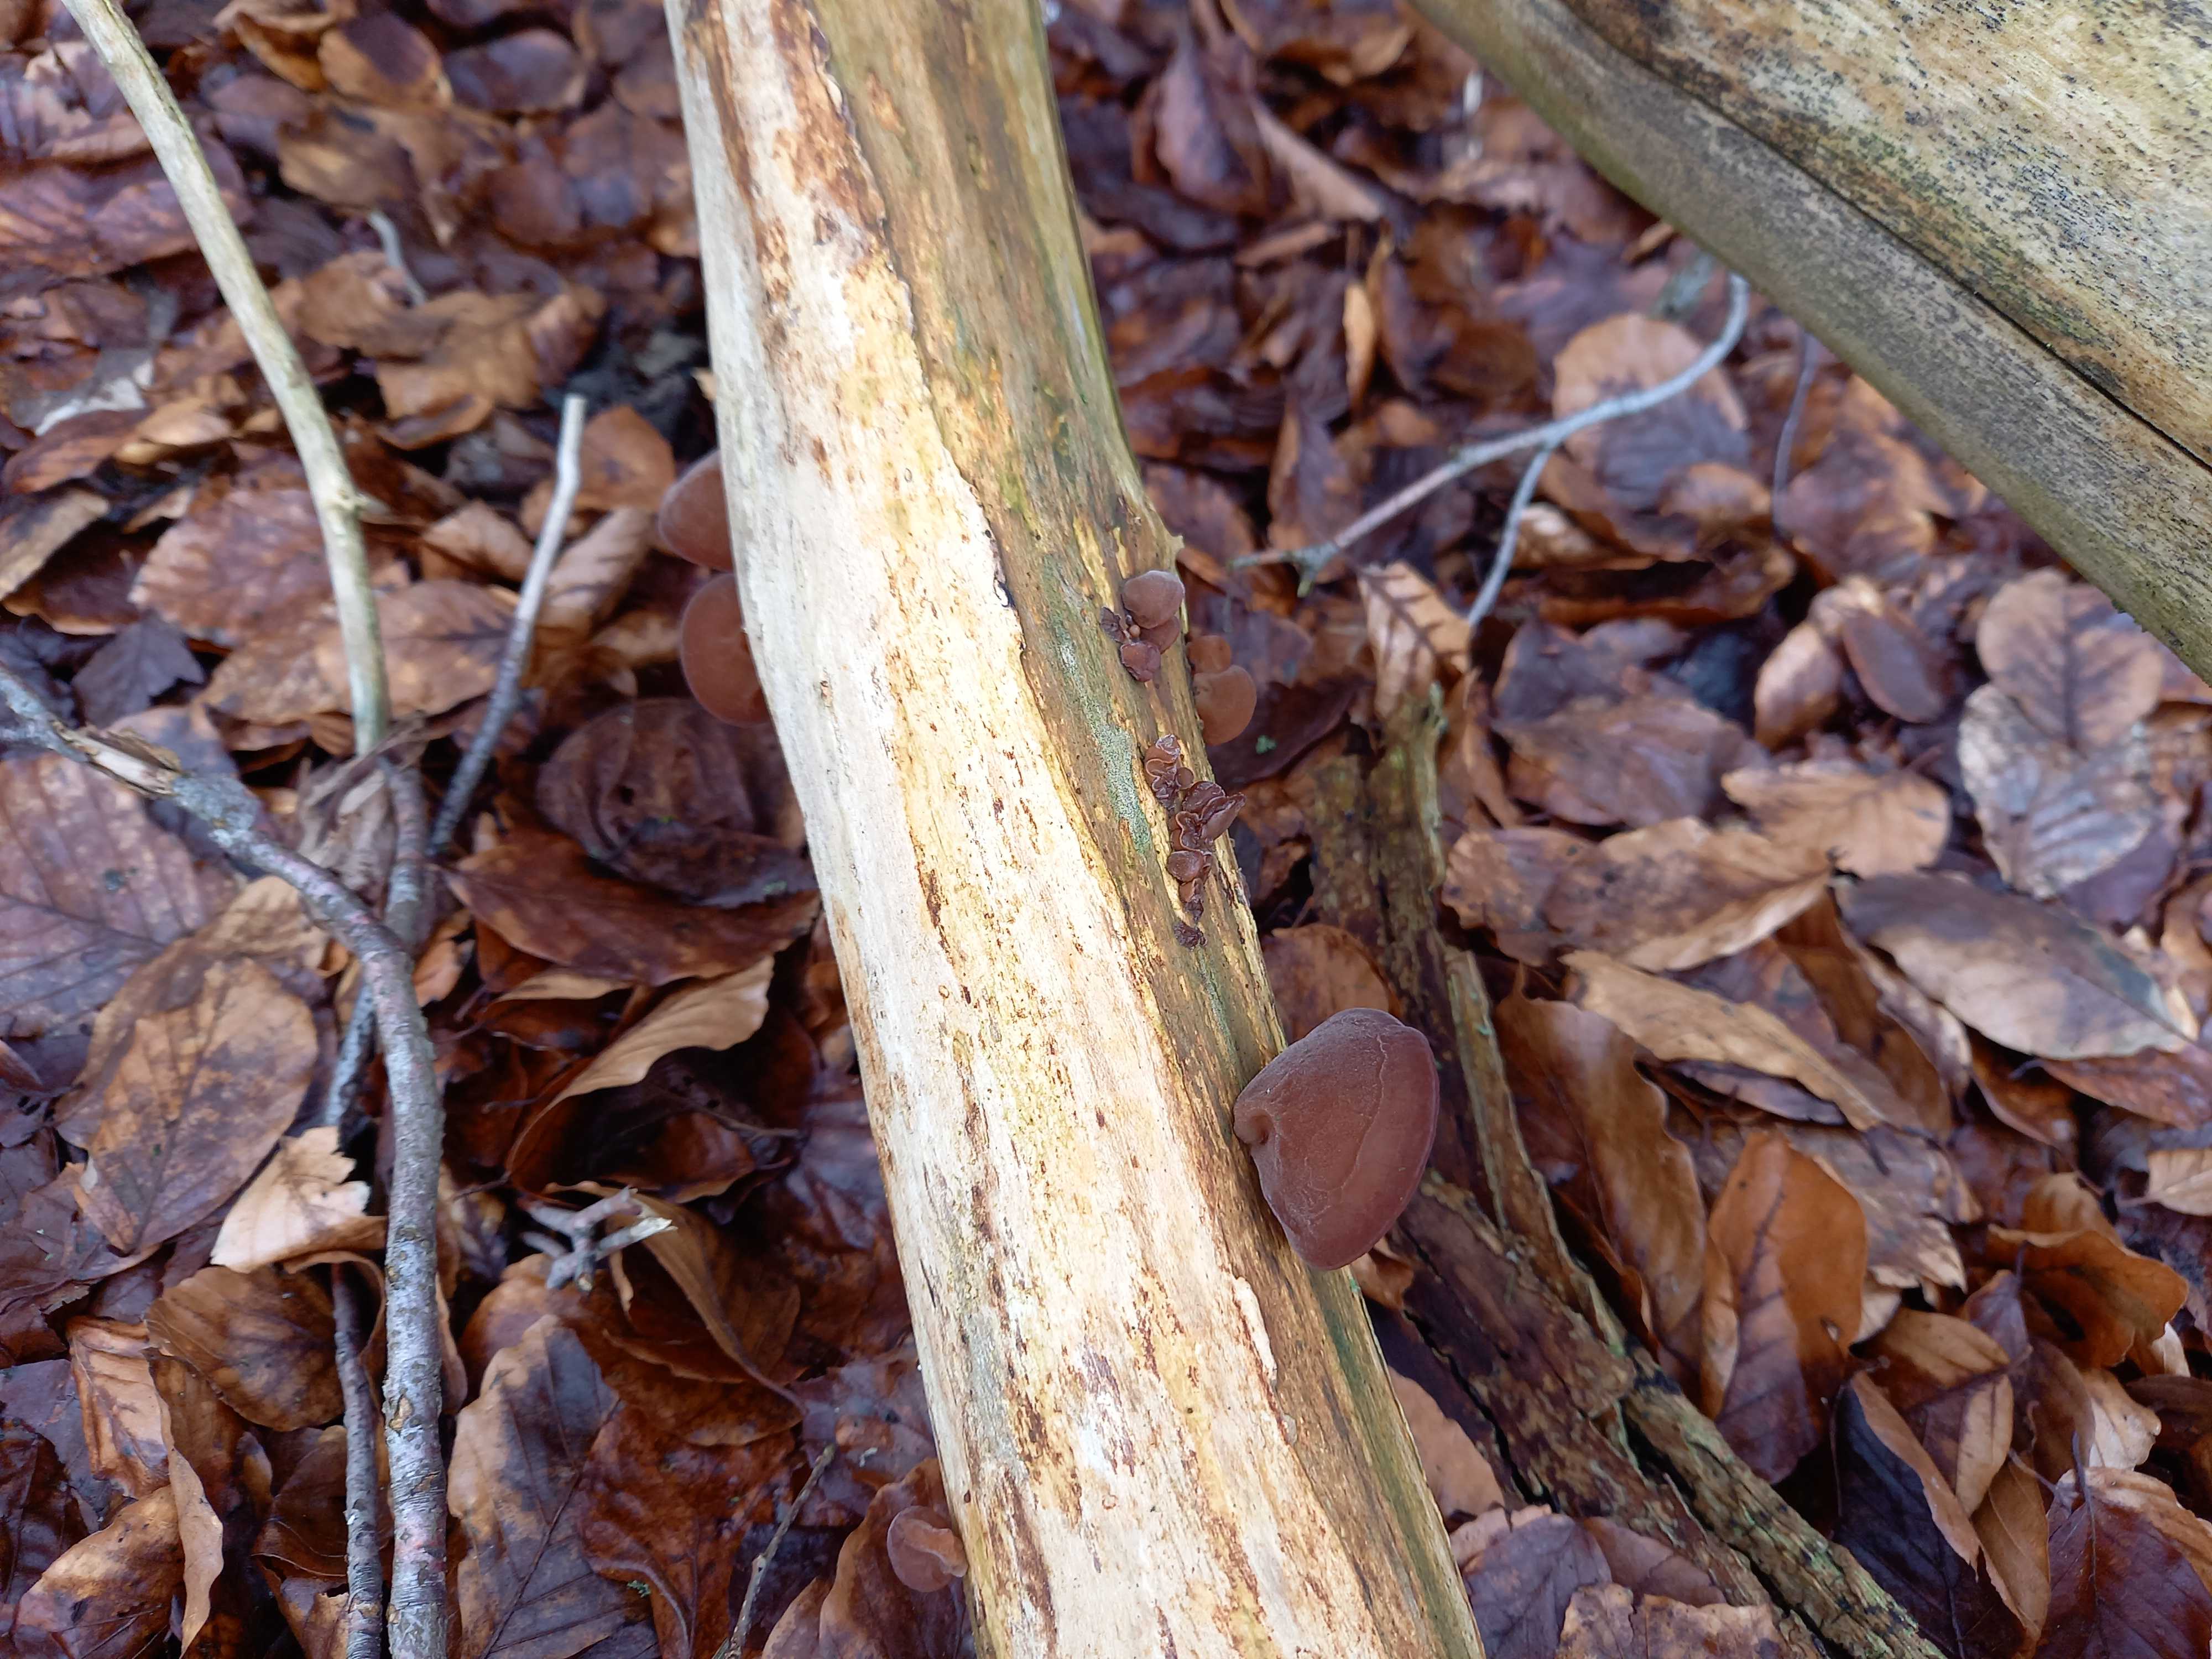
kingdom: Fungi
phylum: Basidiomycota
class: Agaricomycetes
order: Auriculariales
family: Auriculariaceae
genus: Auricularia
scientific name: Auricularia auricula-judae
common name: almindelig judasøre
